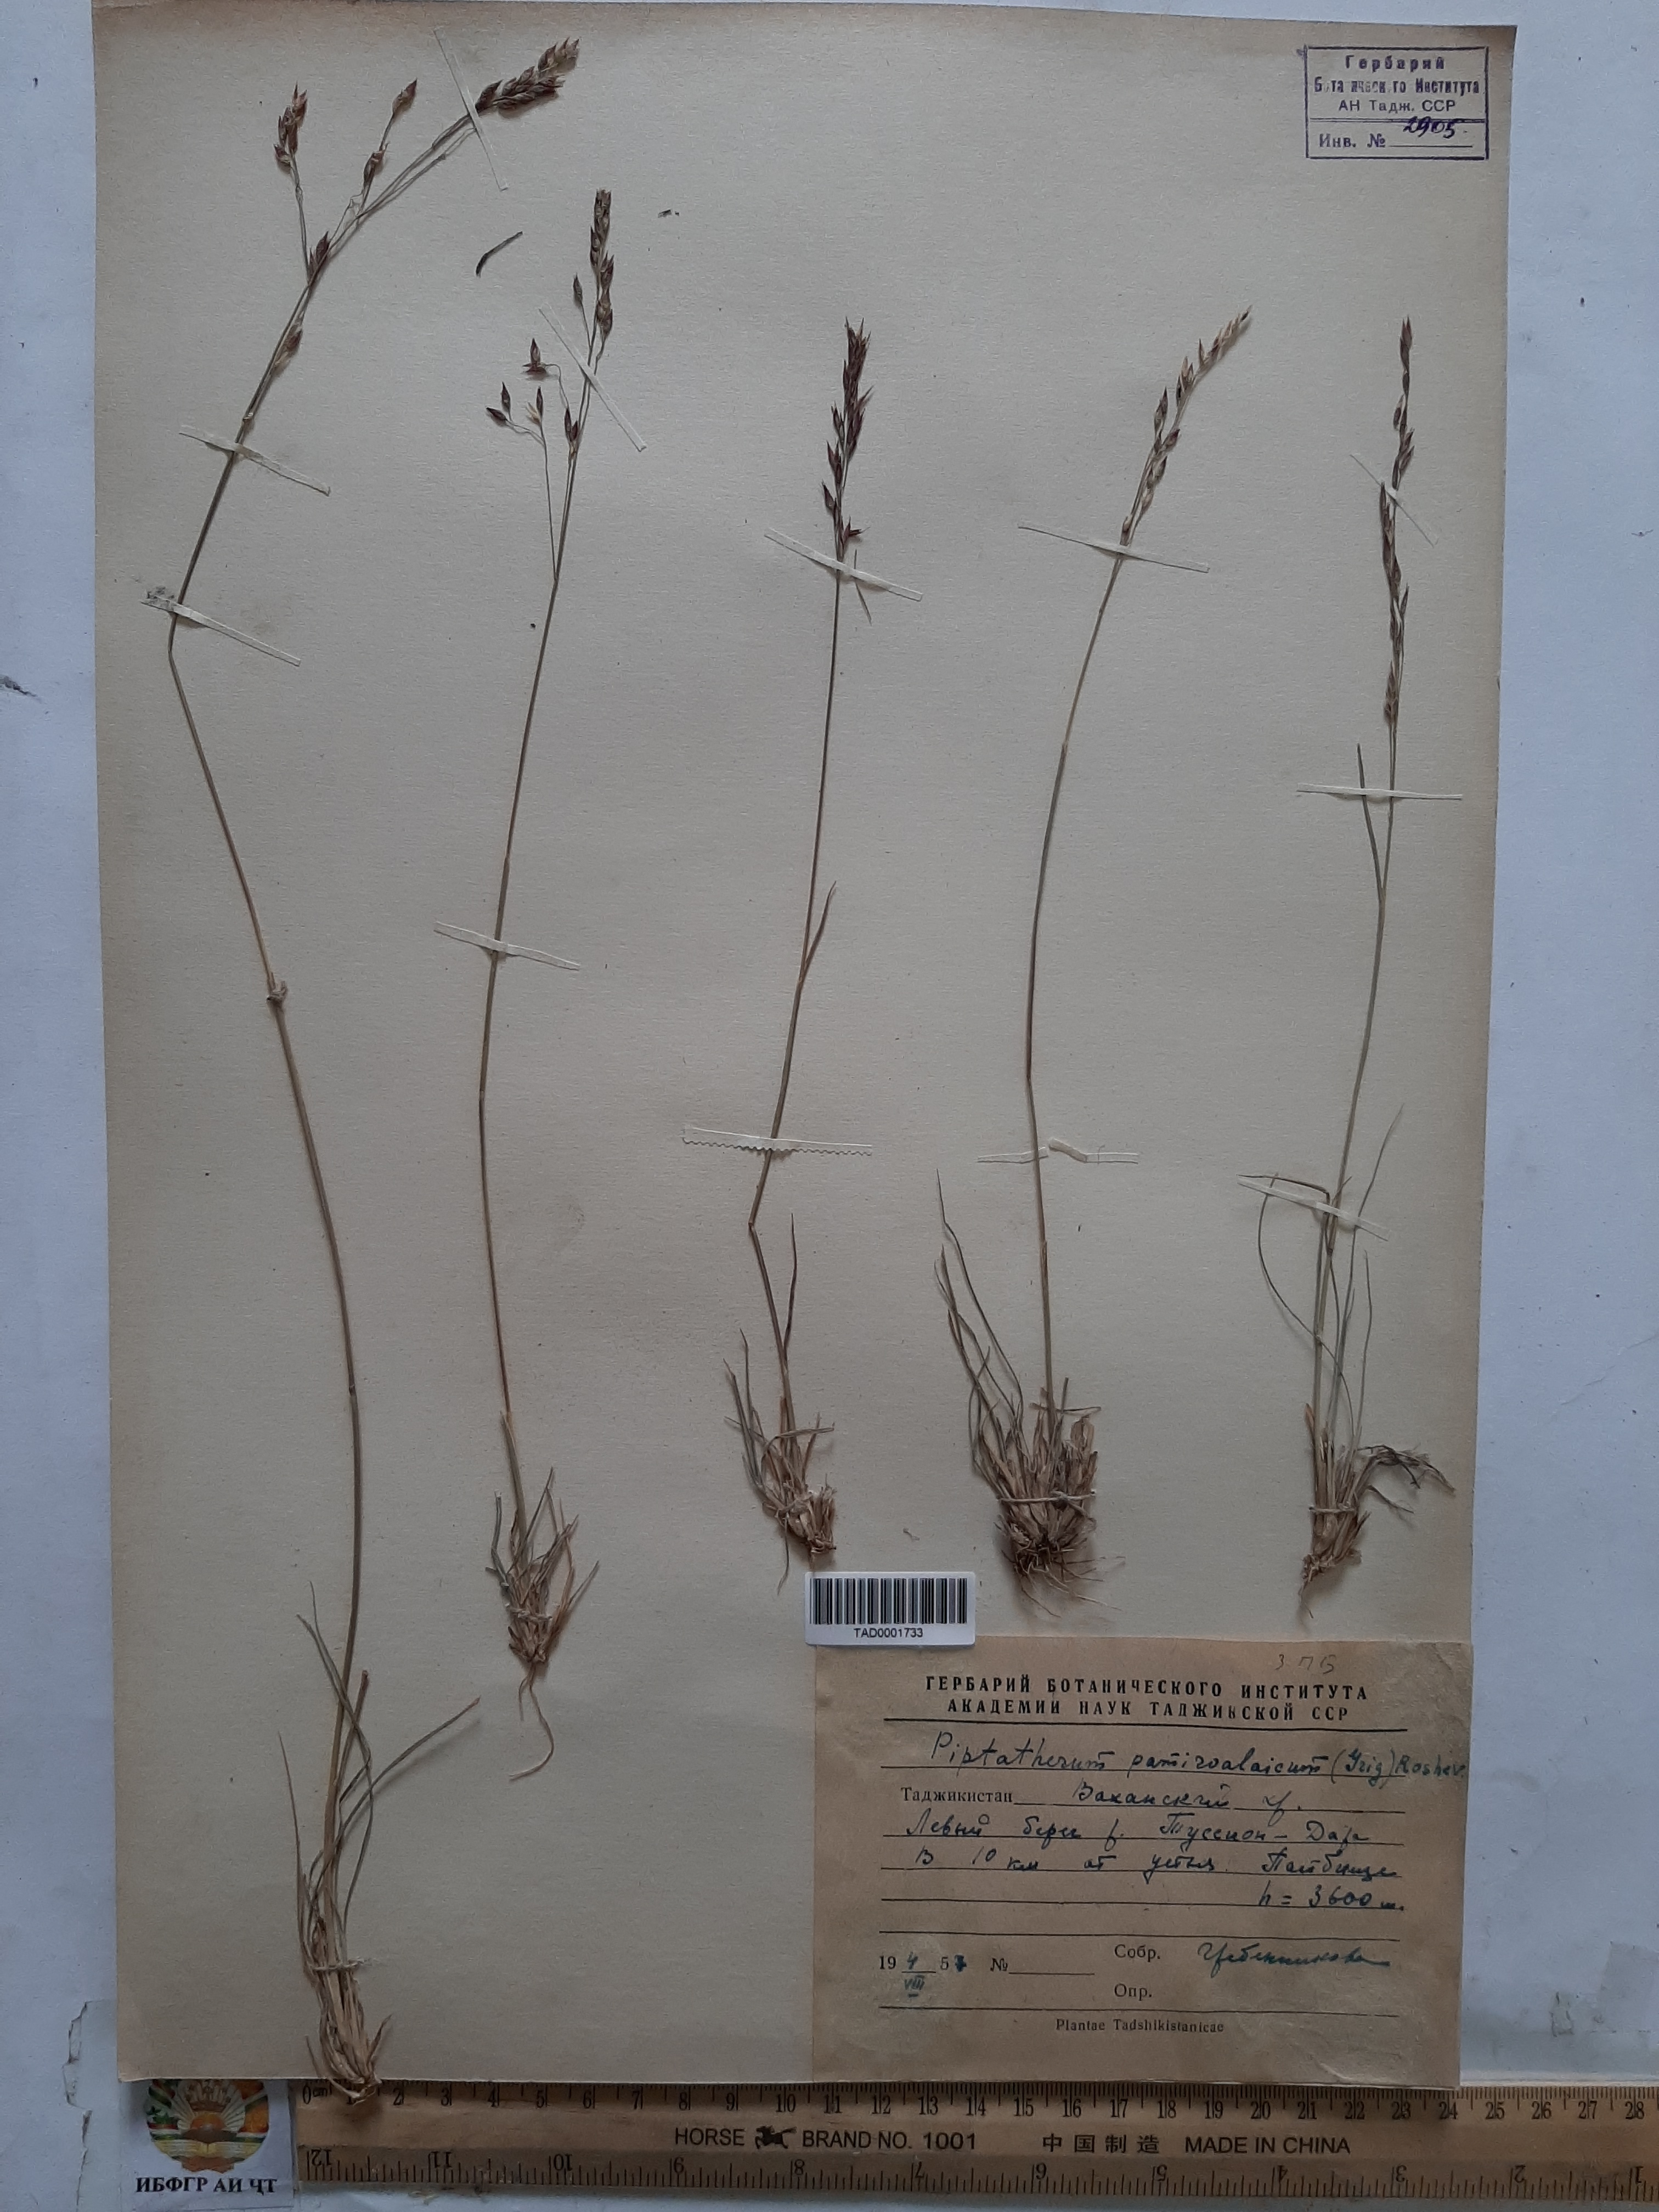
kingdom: Plantae
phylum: Tracheophyta
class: Liliopsida
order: Poales
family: Poaceae
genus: Piptatherum
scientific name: Piptatherum pamiralaicum
